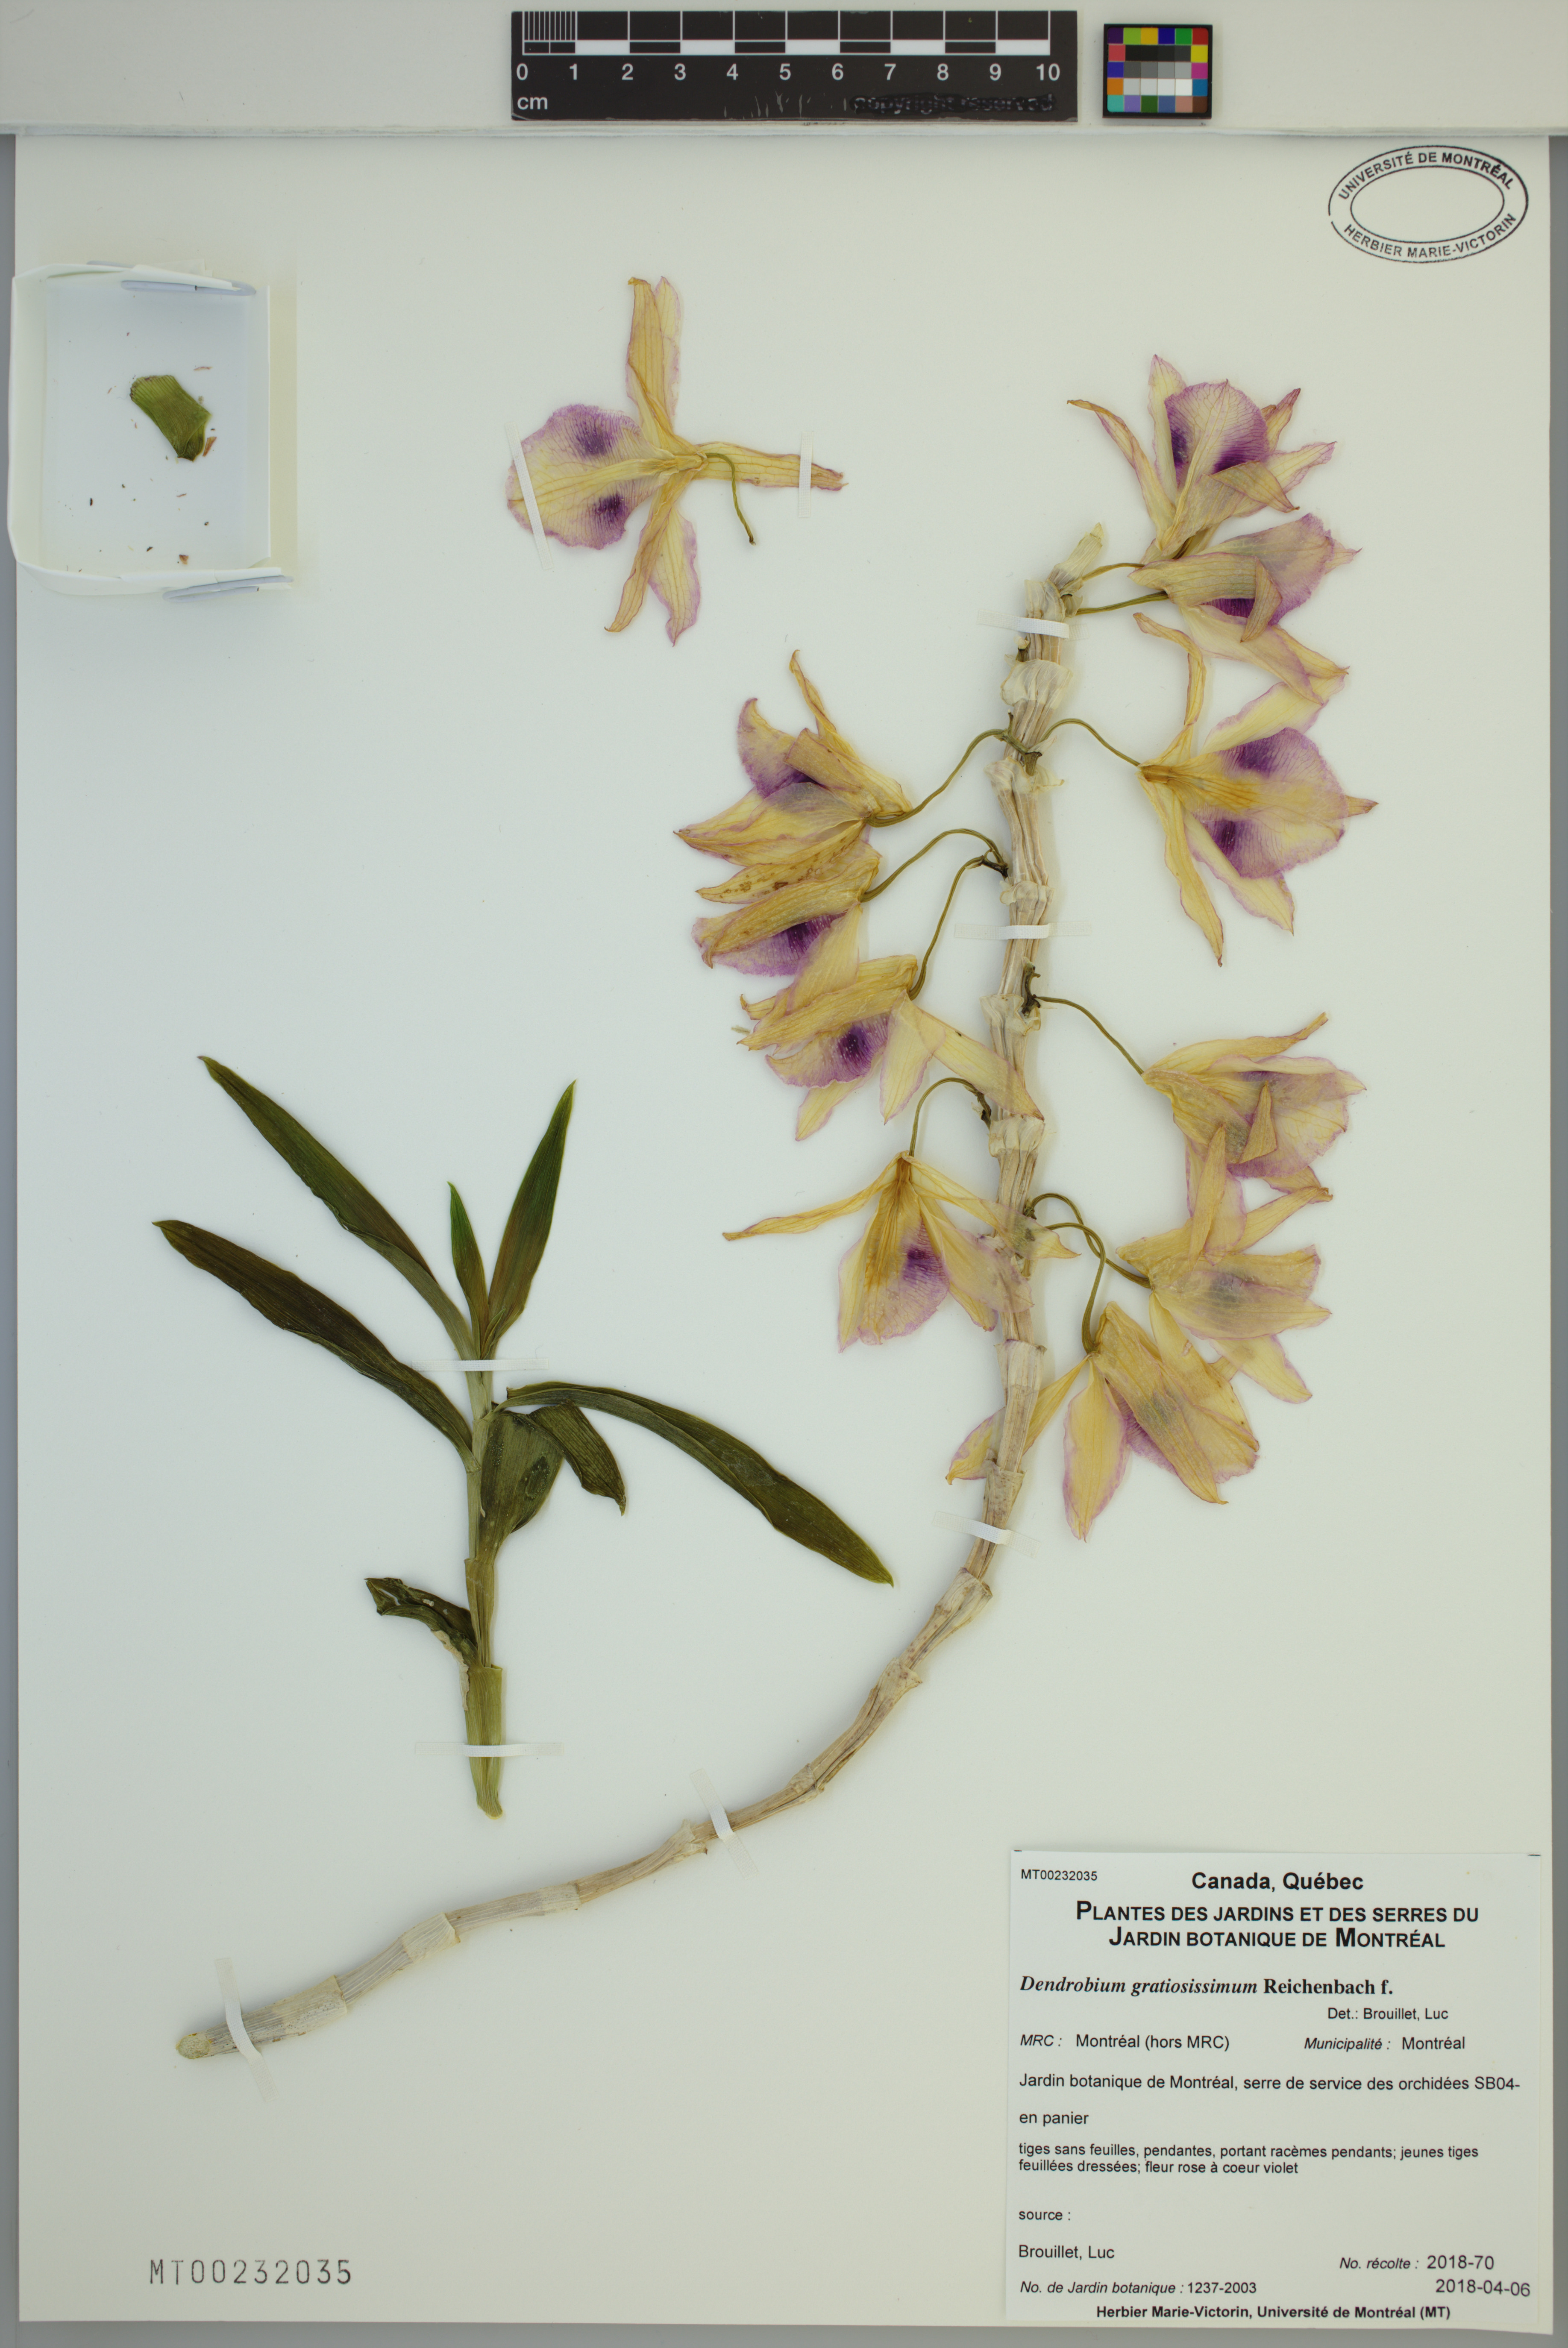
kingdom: Plantae
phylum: Tracheophyta
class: Liliopsida
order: Asparagales
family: Orchidaceae
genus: Dendrobium
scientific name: Dendrobium gratiosissimum
